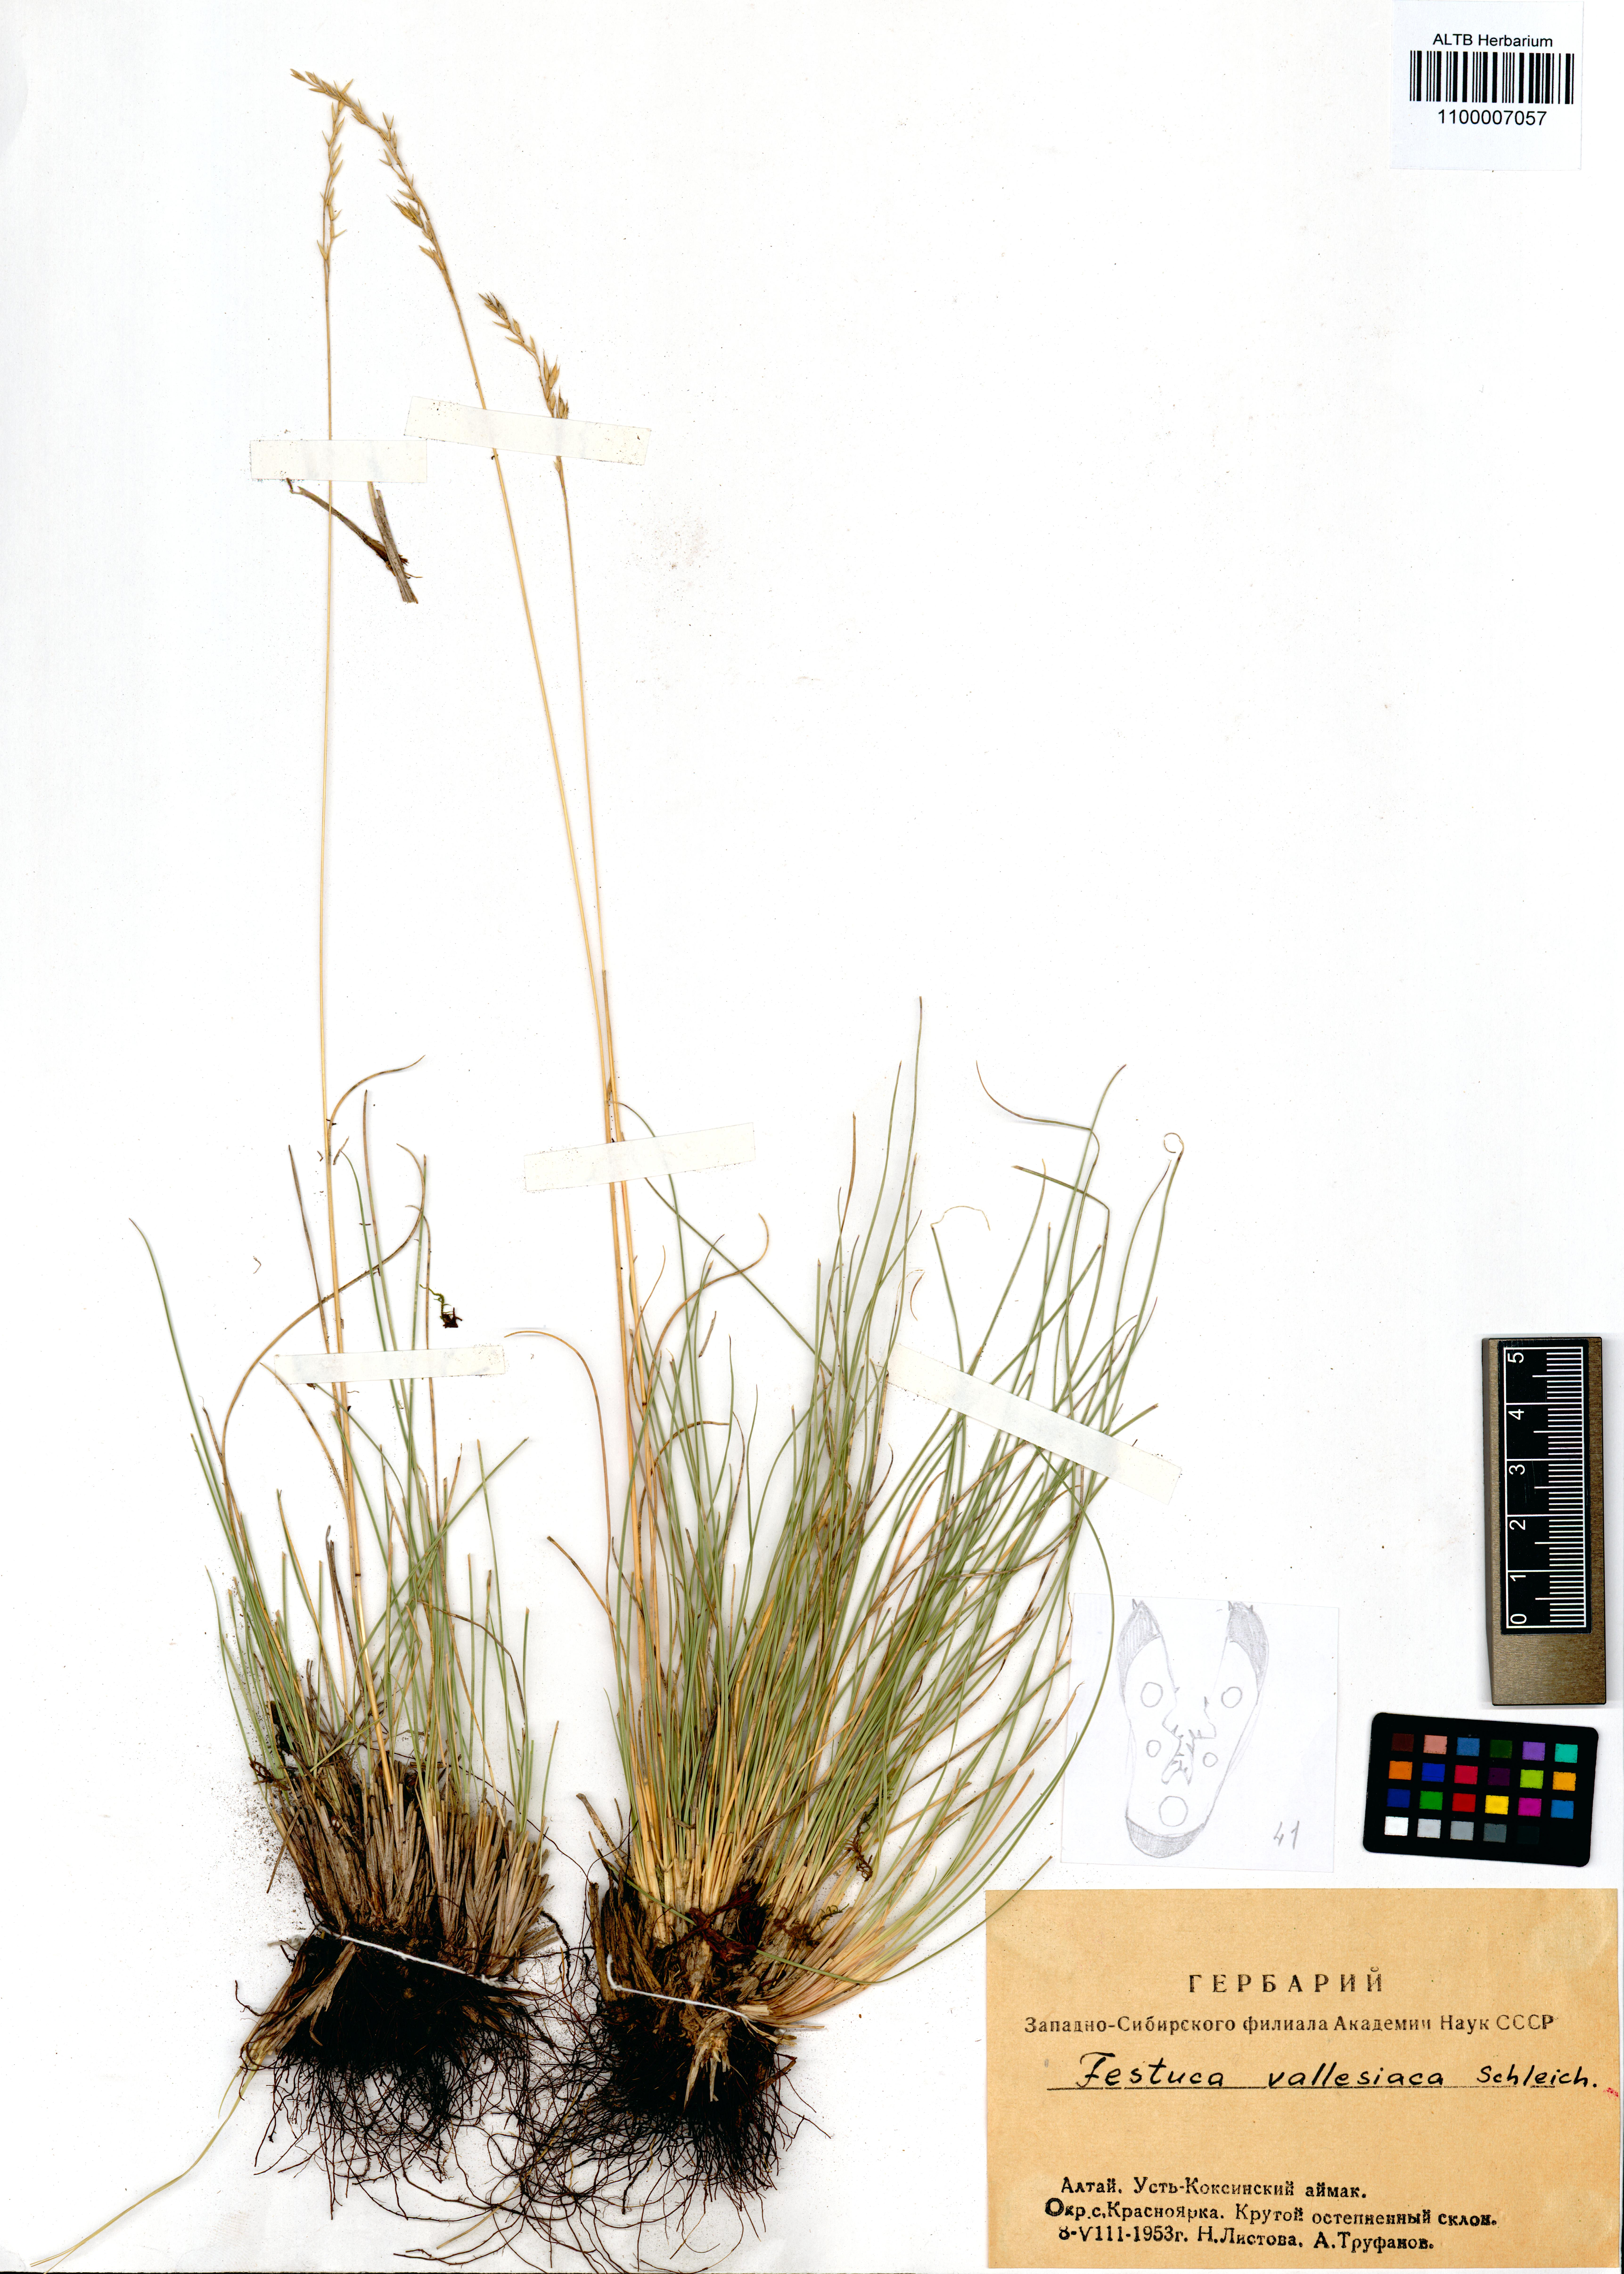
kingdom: Plantae
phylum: Tracheophyta
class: Liliopsida
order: Poales
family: Poaceae
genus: Festuca
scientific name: Festuca valesiaca
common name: Volga fescue
